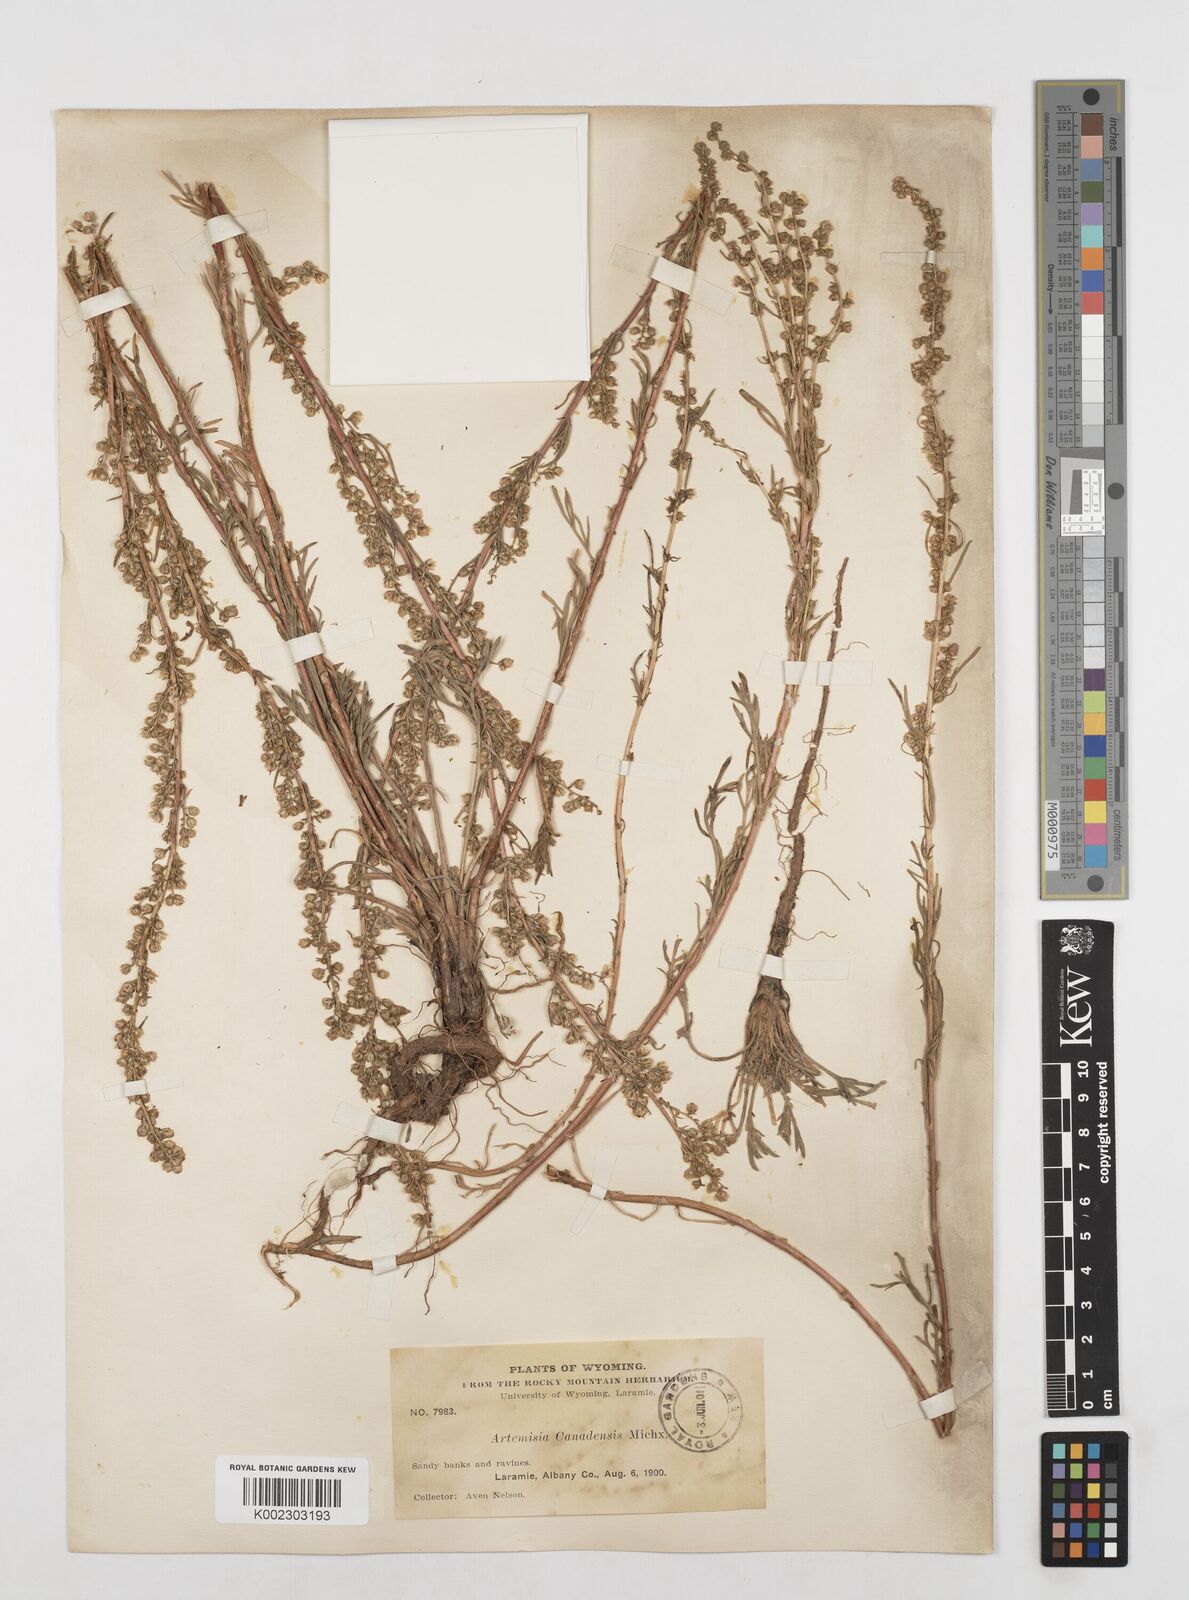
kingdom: Plantae
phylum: Tracheophyta
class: Magnoliopsida
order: Asterales
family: Asteraceae
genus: Artemisia
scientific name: Artemisia campestris
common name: Field wormwood
